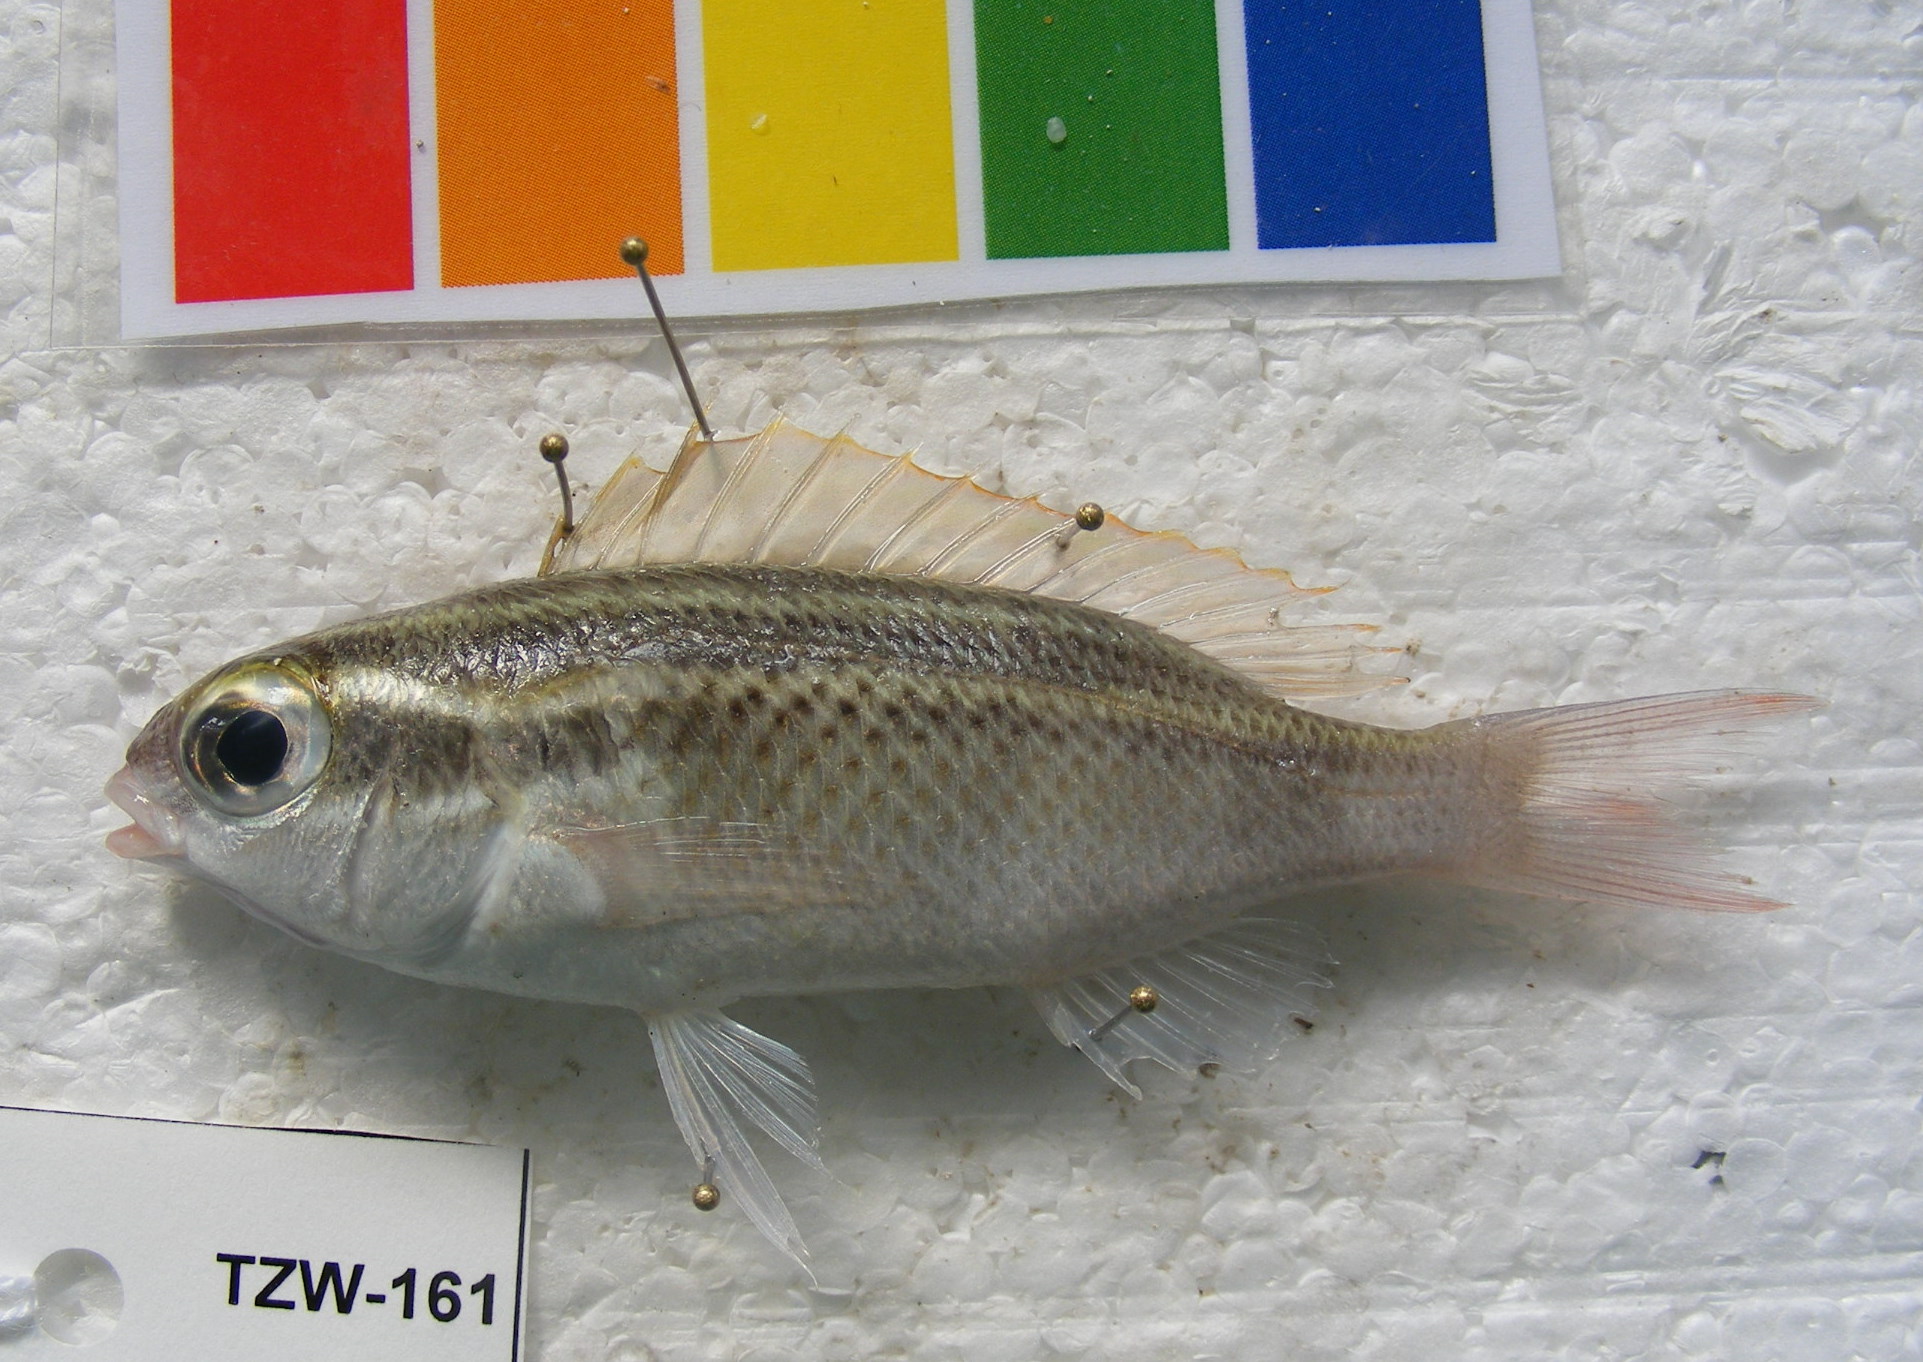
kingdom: Animalia
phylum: Chordata
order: Perciformes
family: Nemipteridae
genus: Scolopsis
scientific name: Scolopsis ghanam
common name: Arabian monocle bream
